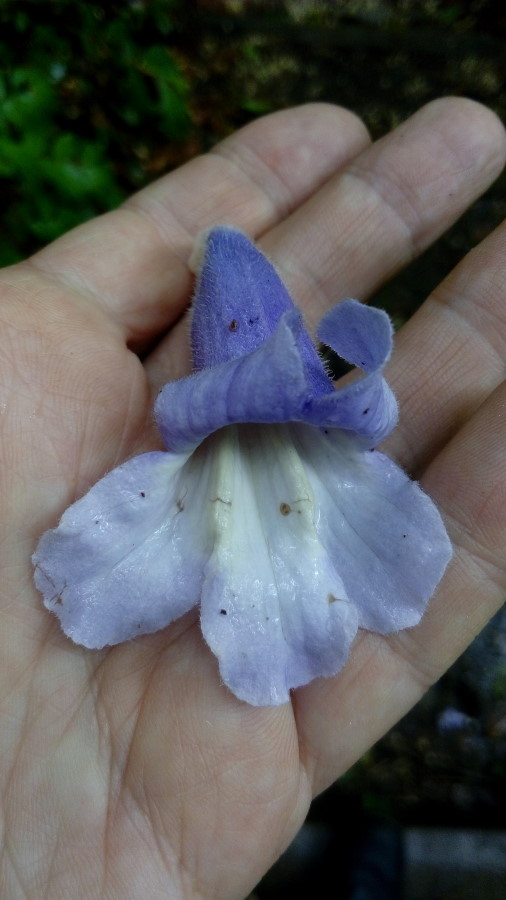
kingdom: Plantae
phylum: Tracheophyta
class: Magnoliopsida
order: Lamiales
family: Paulowniaceae
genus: Paulownia
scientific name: Paulownia tomentosa
